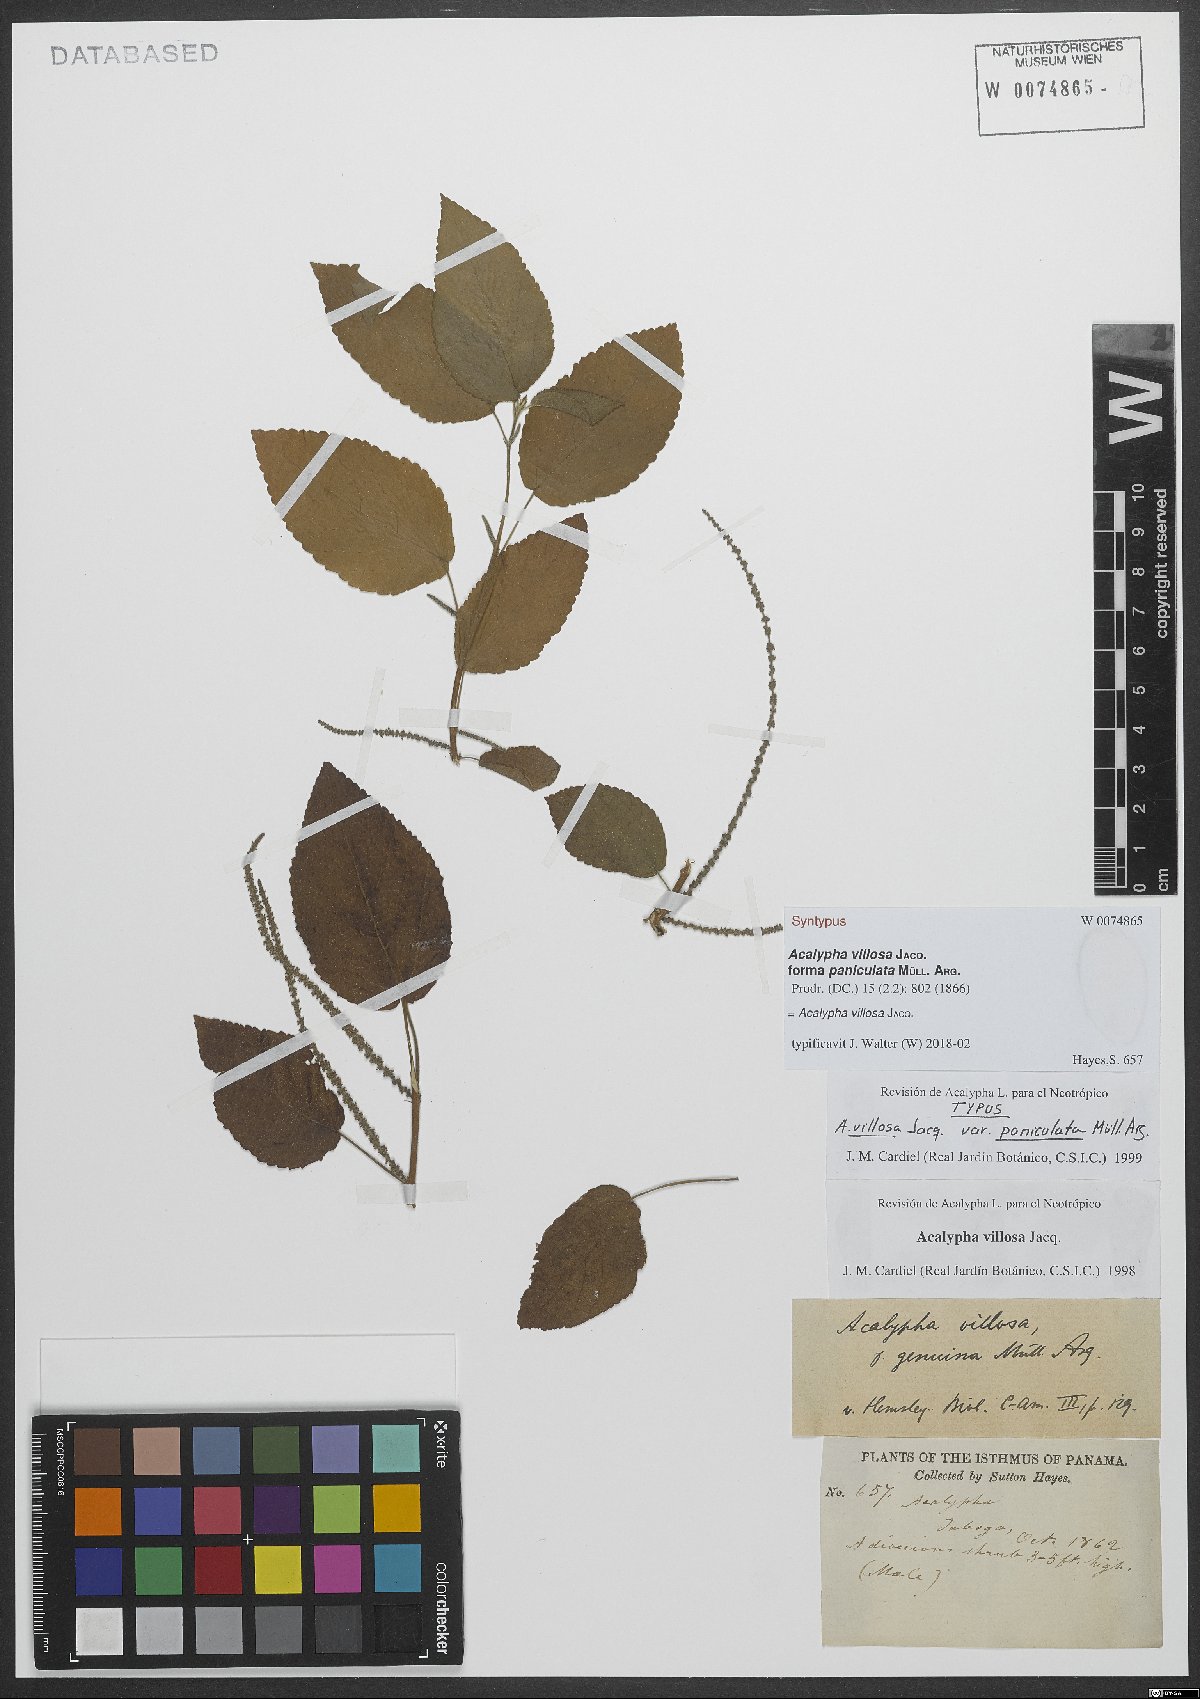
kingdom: Plantae
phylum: Tracheophyta
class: Magnoliopsida
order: Malpighiales
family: Euphorbiaceae
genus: Acalypha
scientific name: Acalypha villosa
